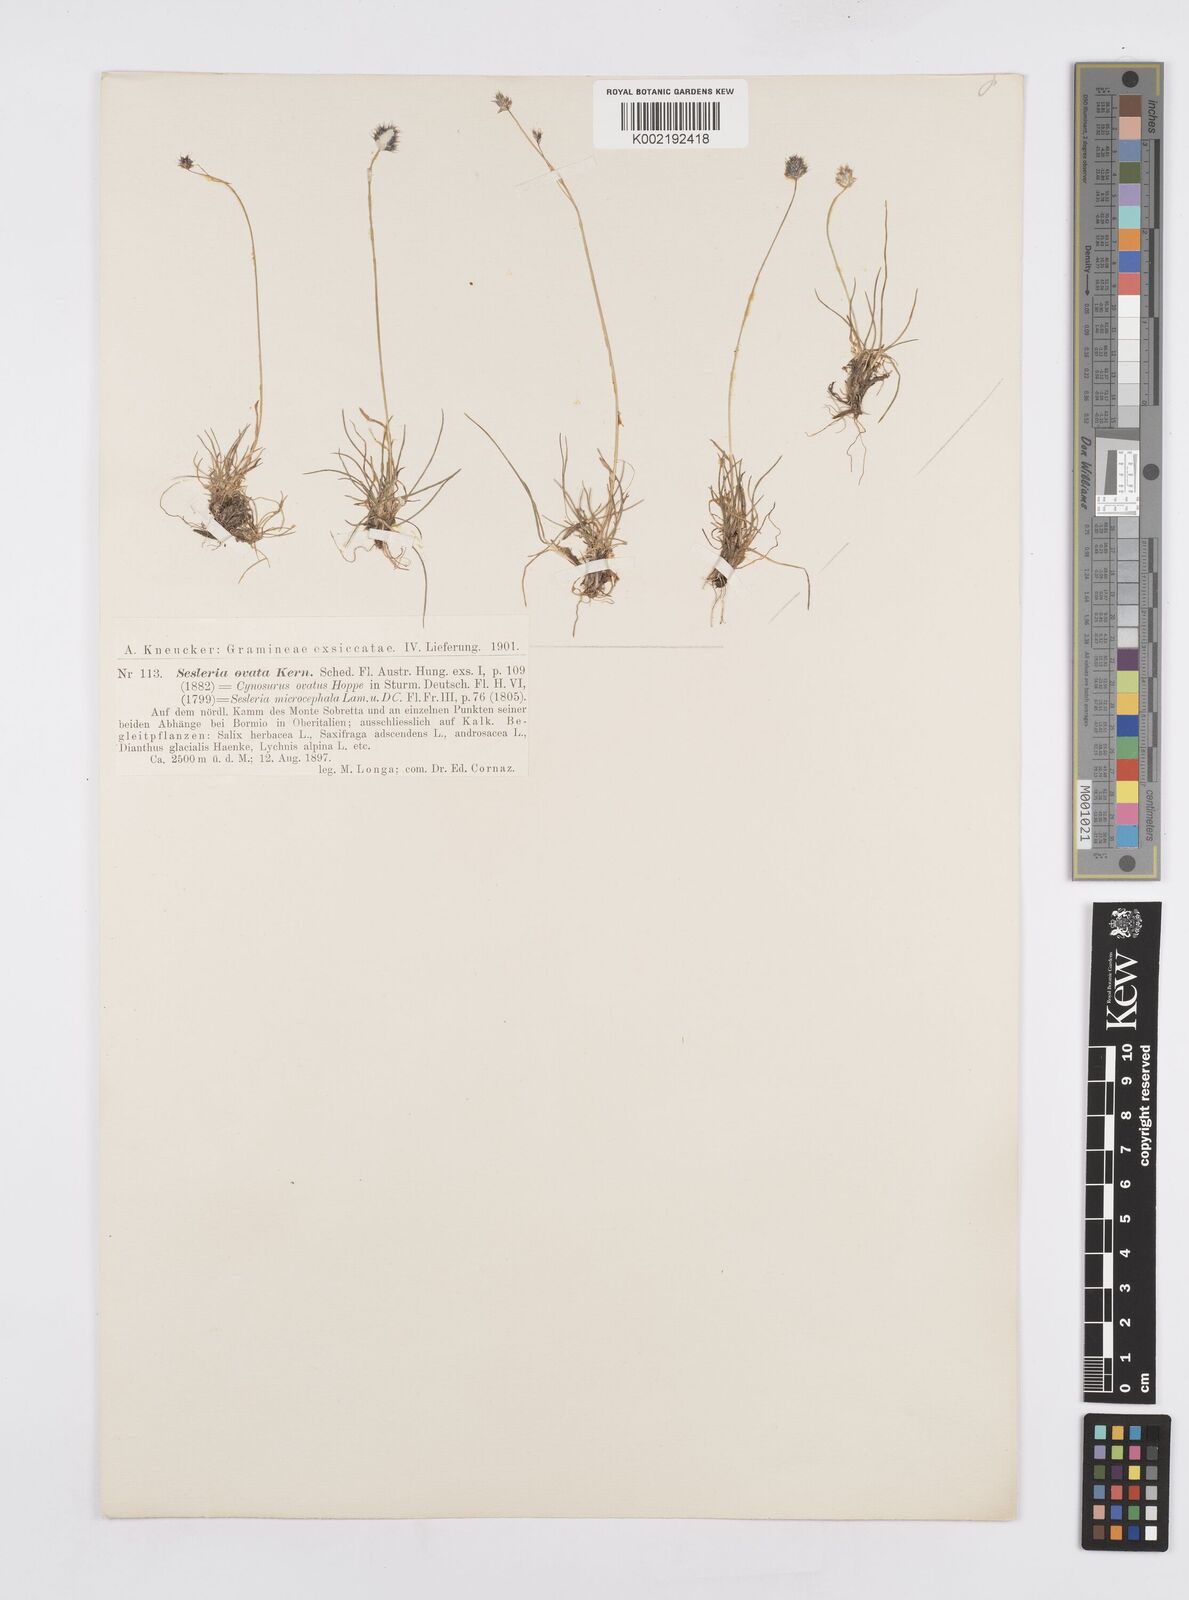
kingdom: Plantae
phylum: Tracheophyta
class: Liliopsida
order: Poales
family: Poaceae
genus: Psilathera
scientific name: Psilathera ovata
